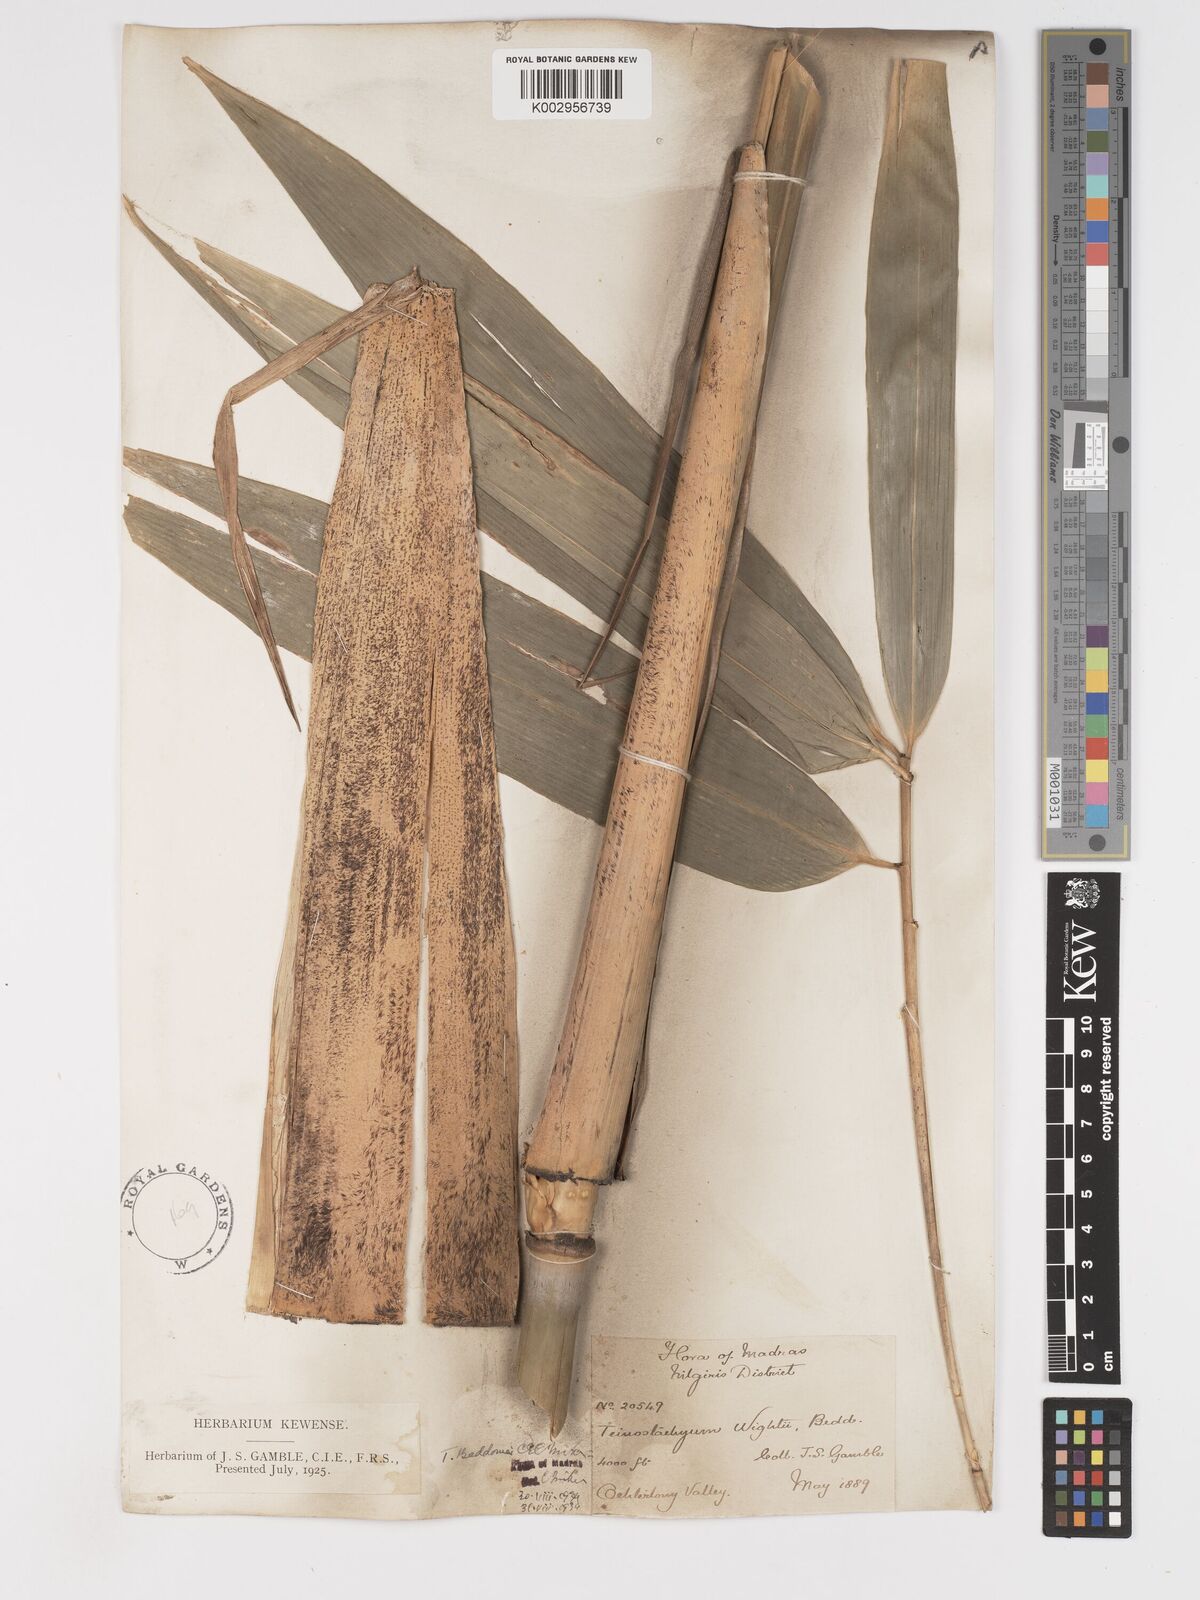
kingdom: Plantae
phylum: Tracheophyta
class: Liliopsida
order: Poales
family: Poaceae
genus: Ochlandra
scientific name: Ochlandra wightii
